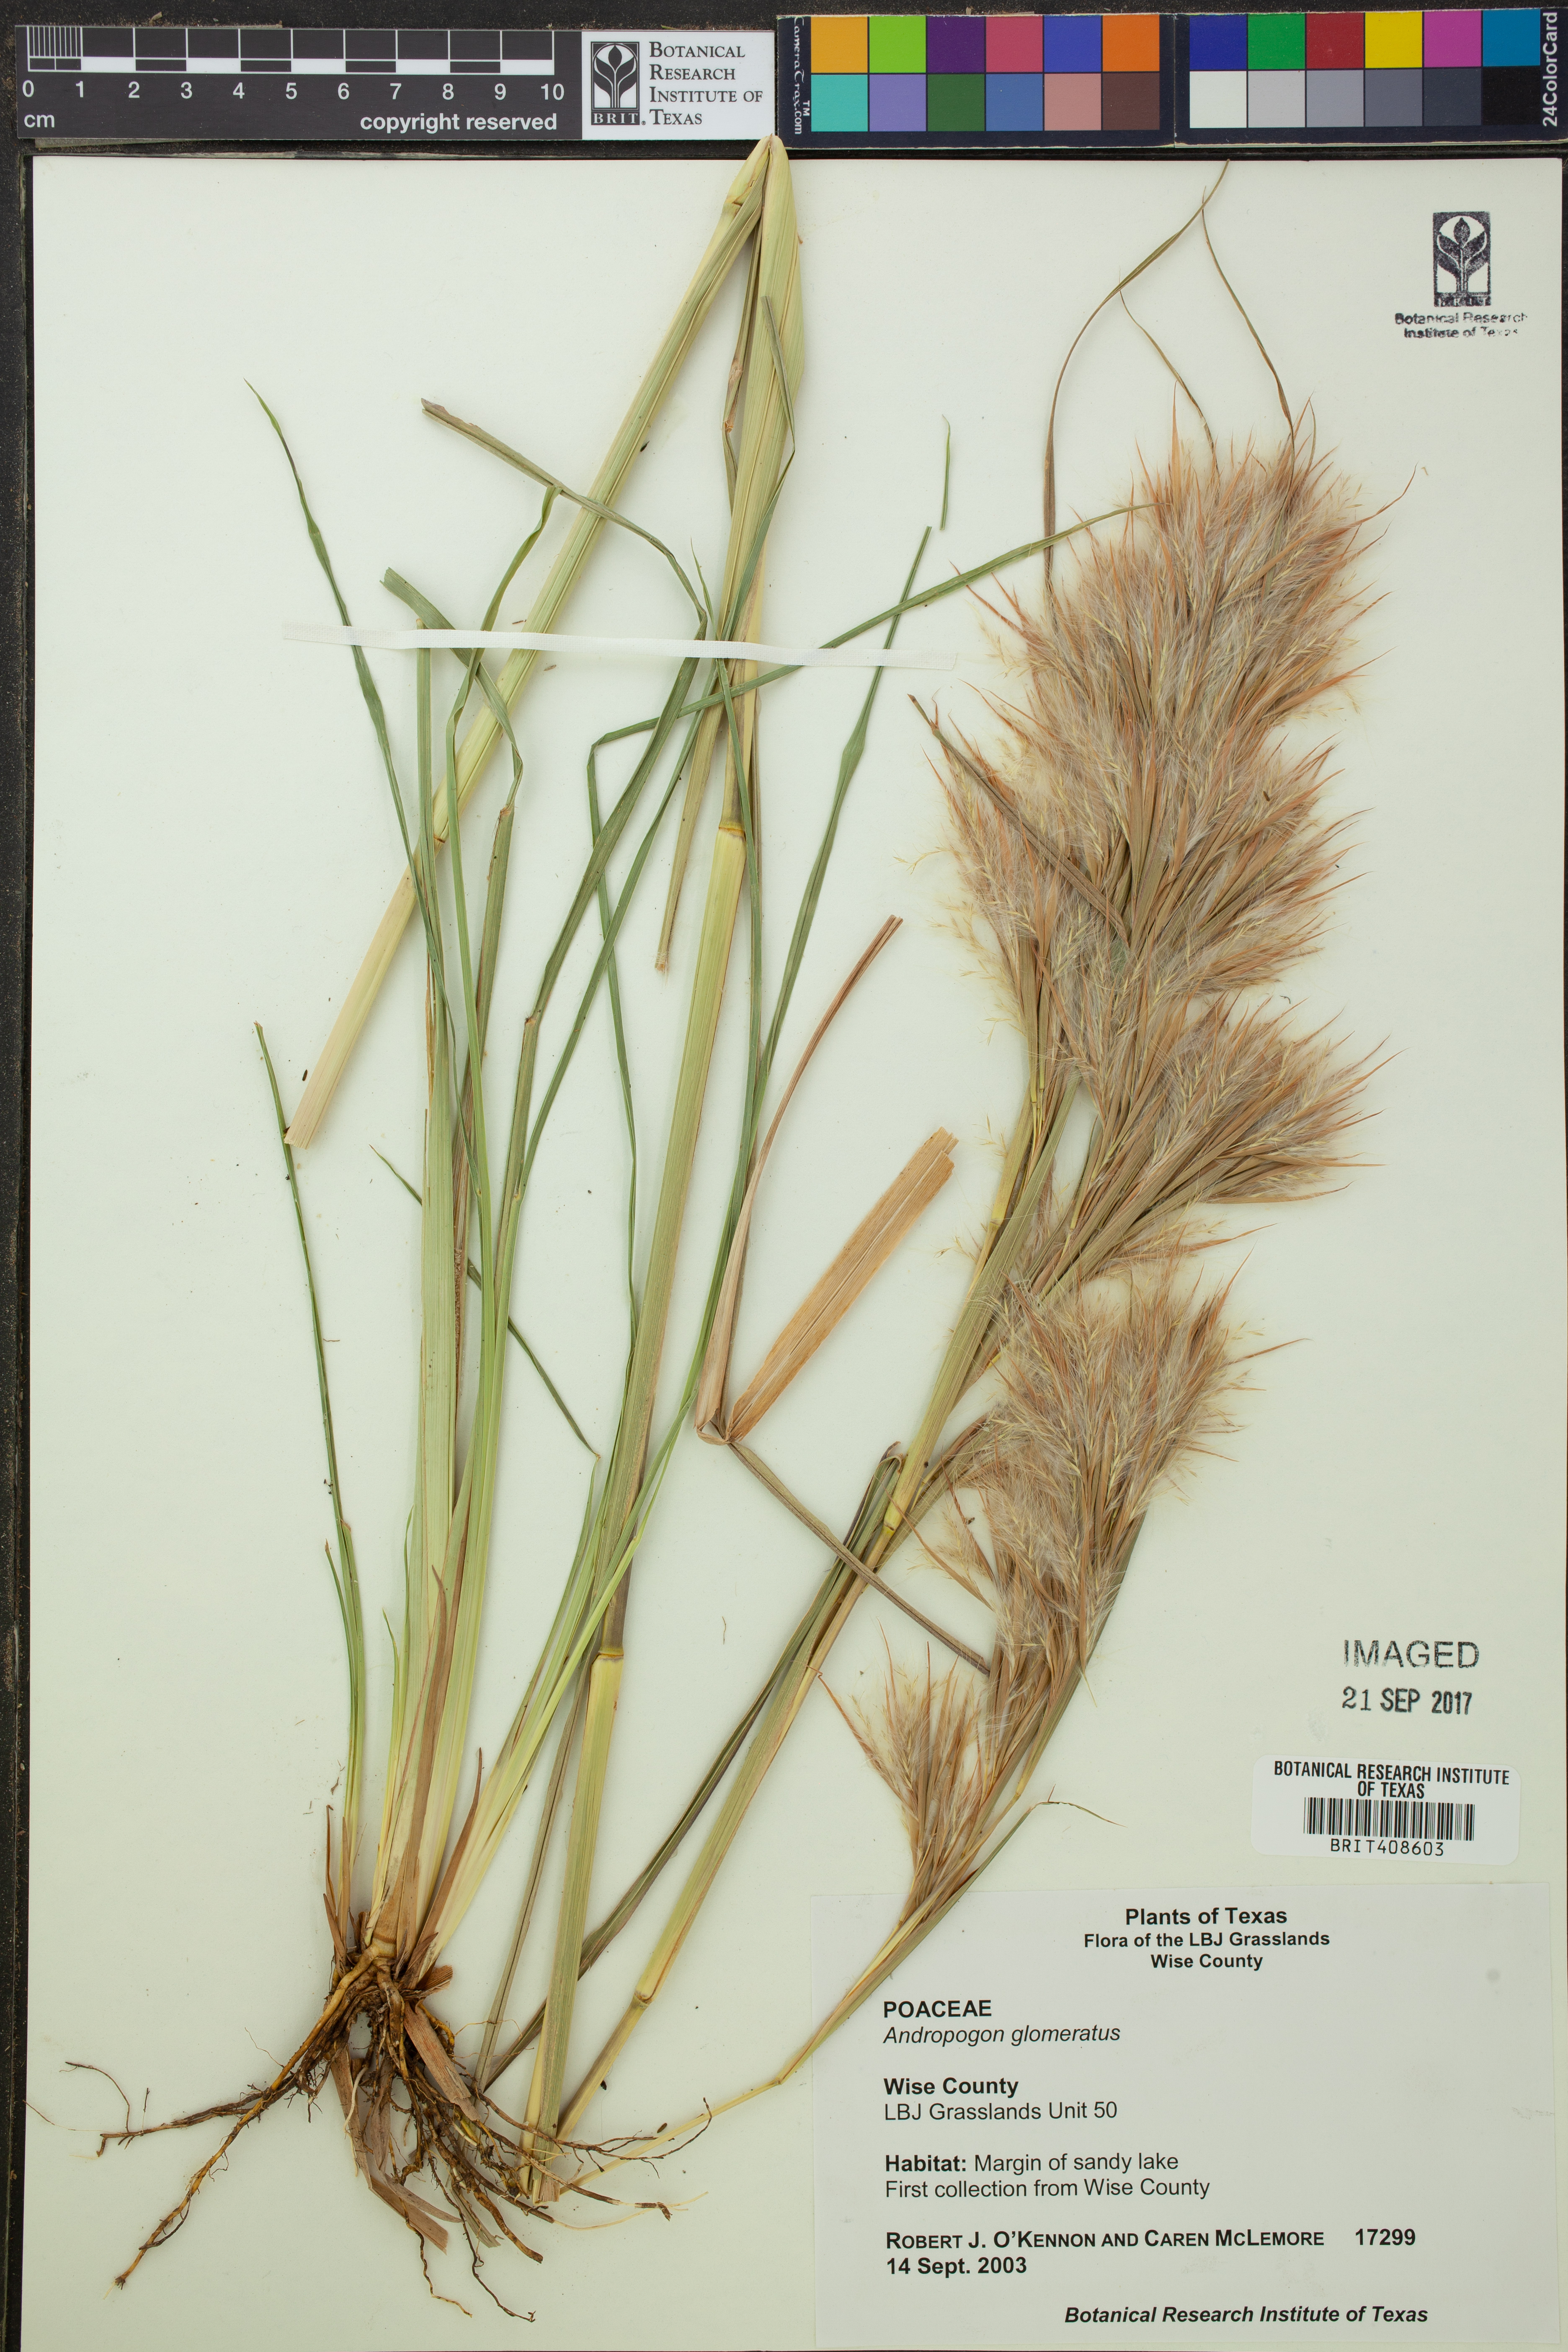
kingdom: Plantae
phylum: Tracheophyta
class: Liliopsida
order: Poales
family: Poaceae
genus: Andropogon
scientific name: Andropogon glomeratus
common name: Bushy beard grass
